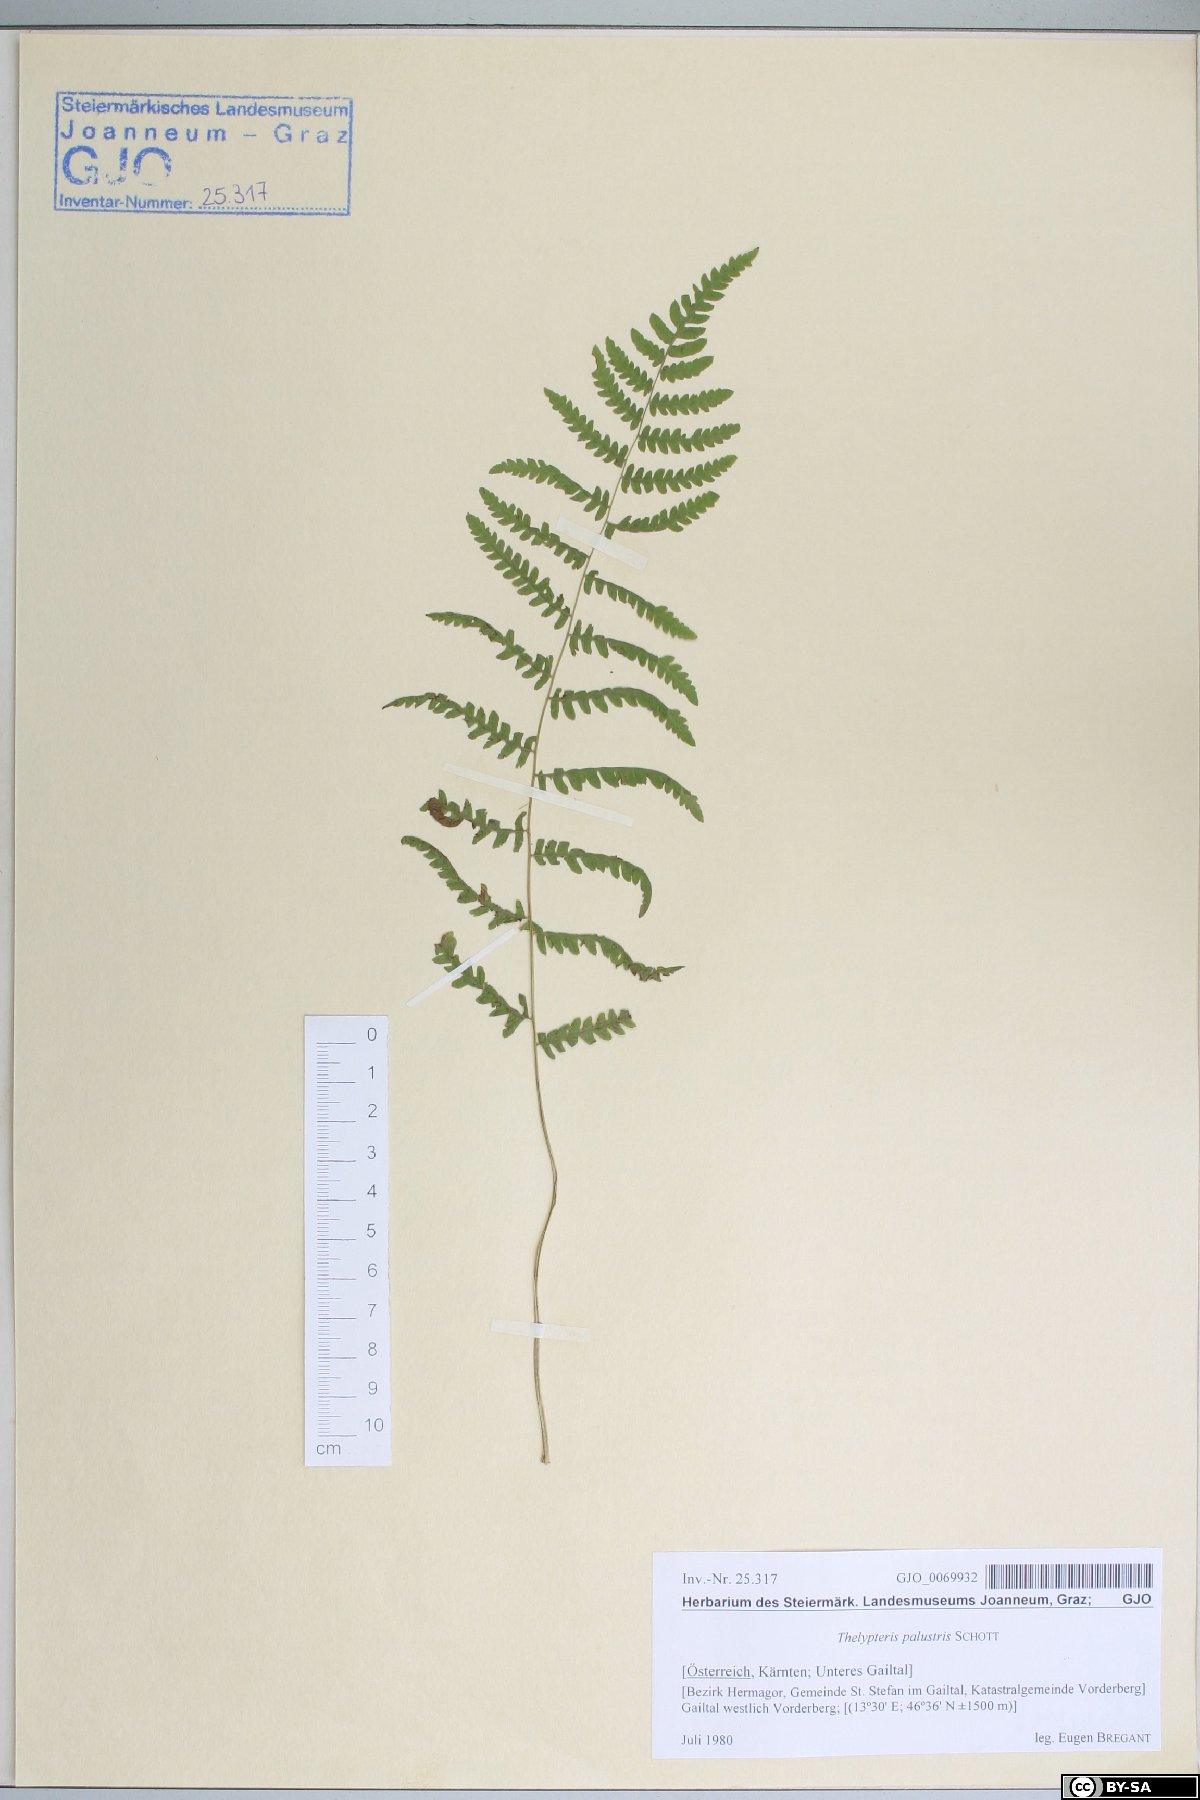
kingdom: Plantae
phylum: Tracheophyta
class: Polypodiopsida
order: Polypodiales
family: Thelypteridaceae
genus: Thelypteris
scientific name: Thelypteris palustris
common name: Marsh fern
